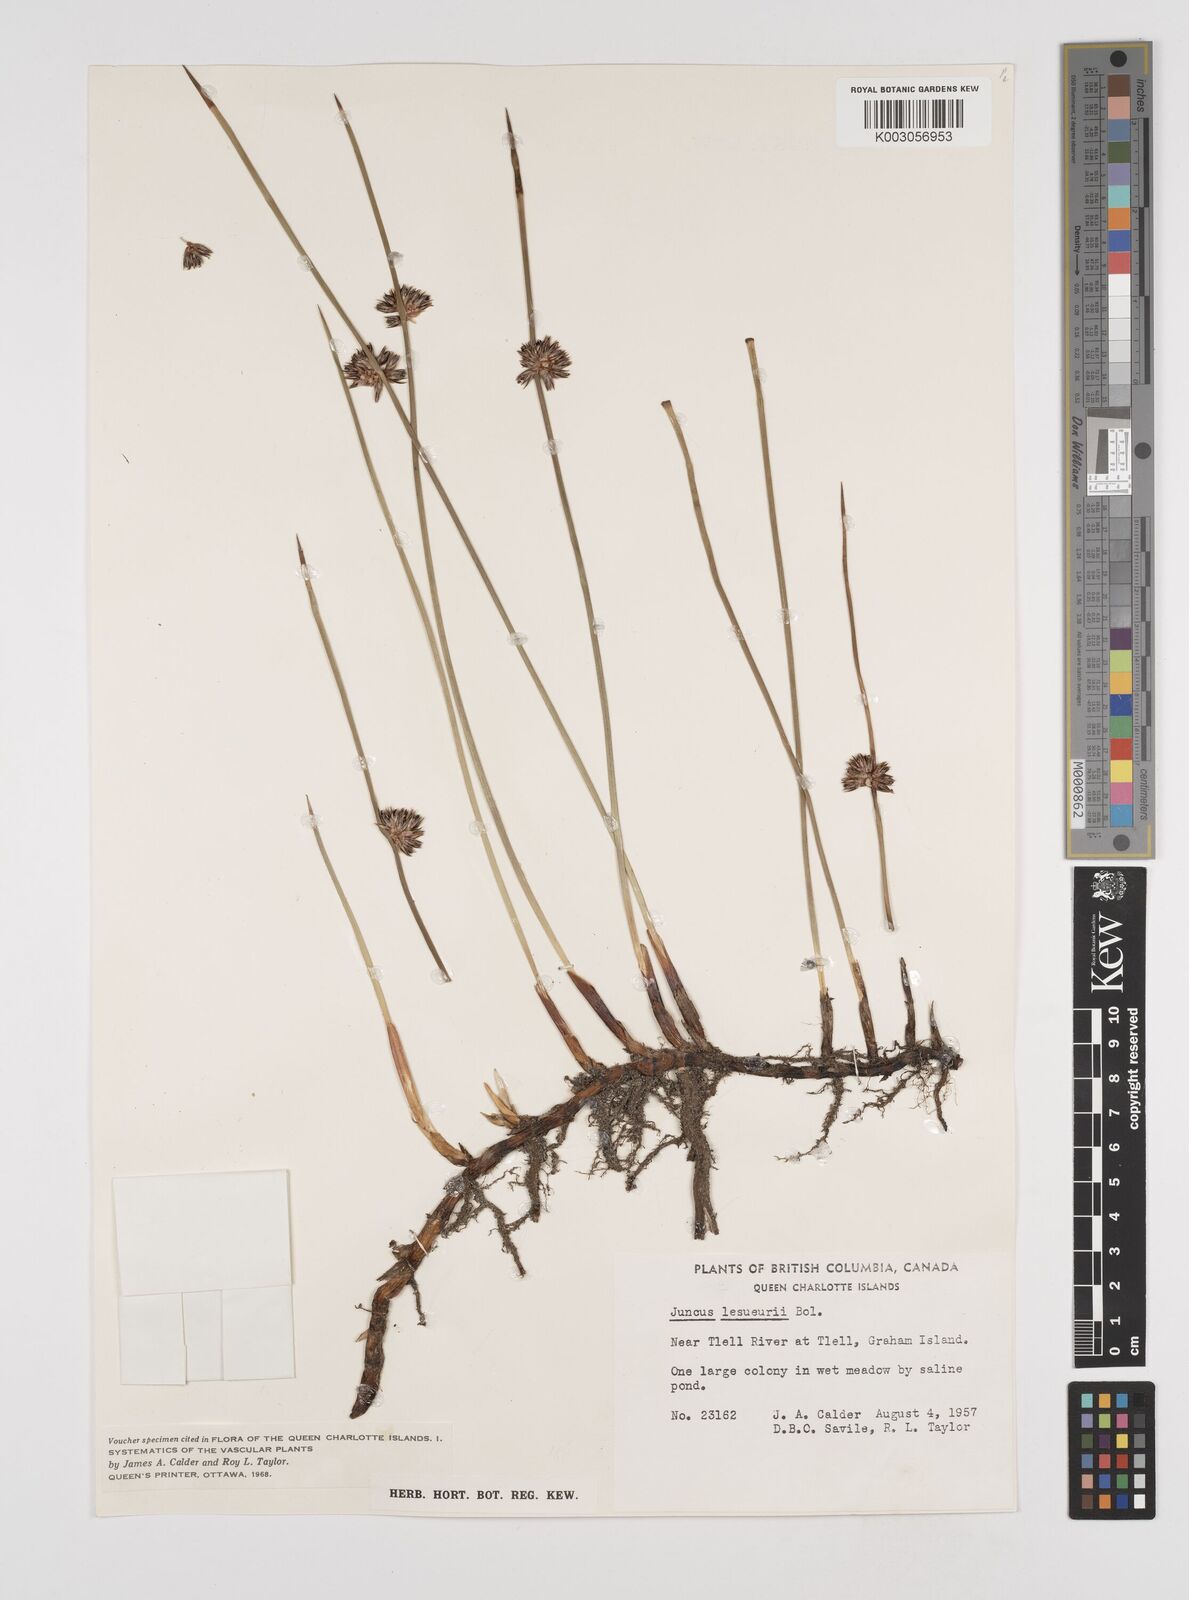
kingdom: Plantae
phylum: Tracheophyta
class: Liliopsida
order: Poales
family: Juncaceae
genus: Juncus
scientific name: Juncus lesueurii
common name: Lesueur's rush
